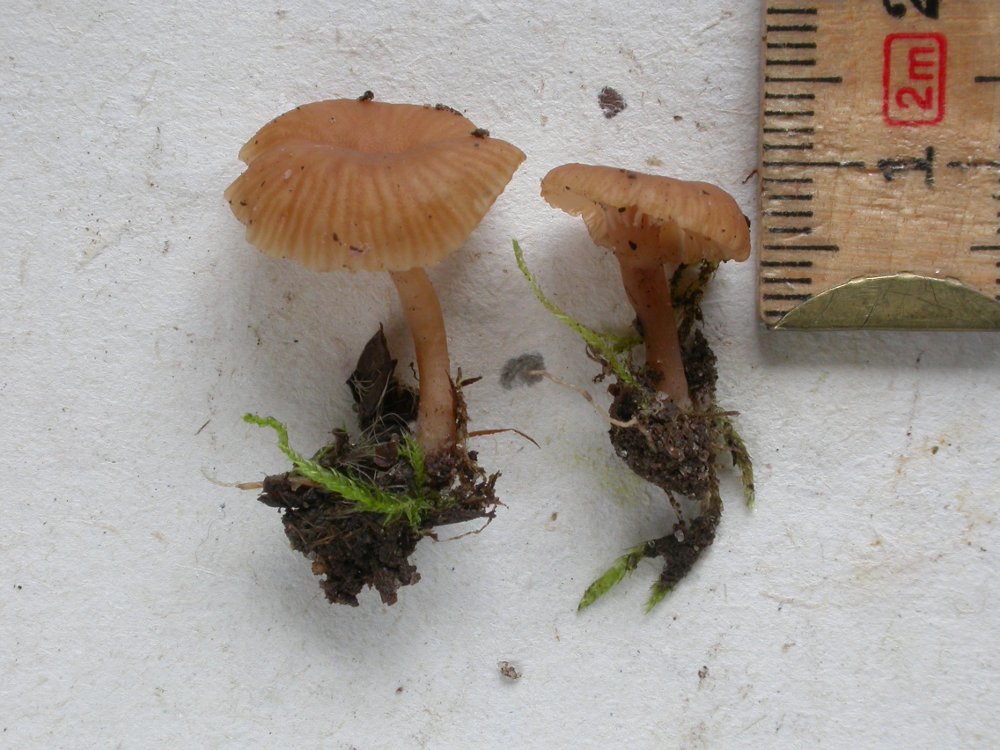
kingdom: Fungi
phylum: Basidiomycota
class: Agaricomycetes
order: Agaricales
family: Tricholomataceae
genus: Omphalina
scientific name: Omphalina pyxidata
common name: rødbrun navlehat
